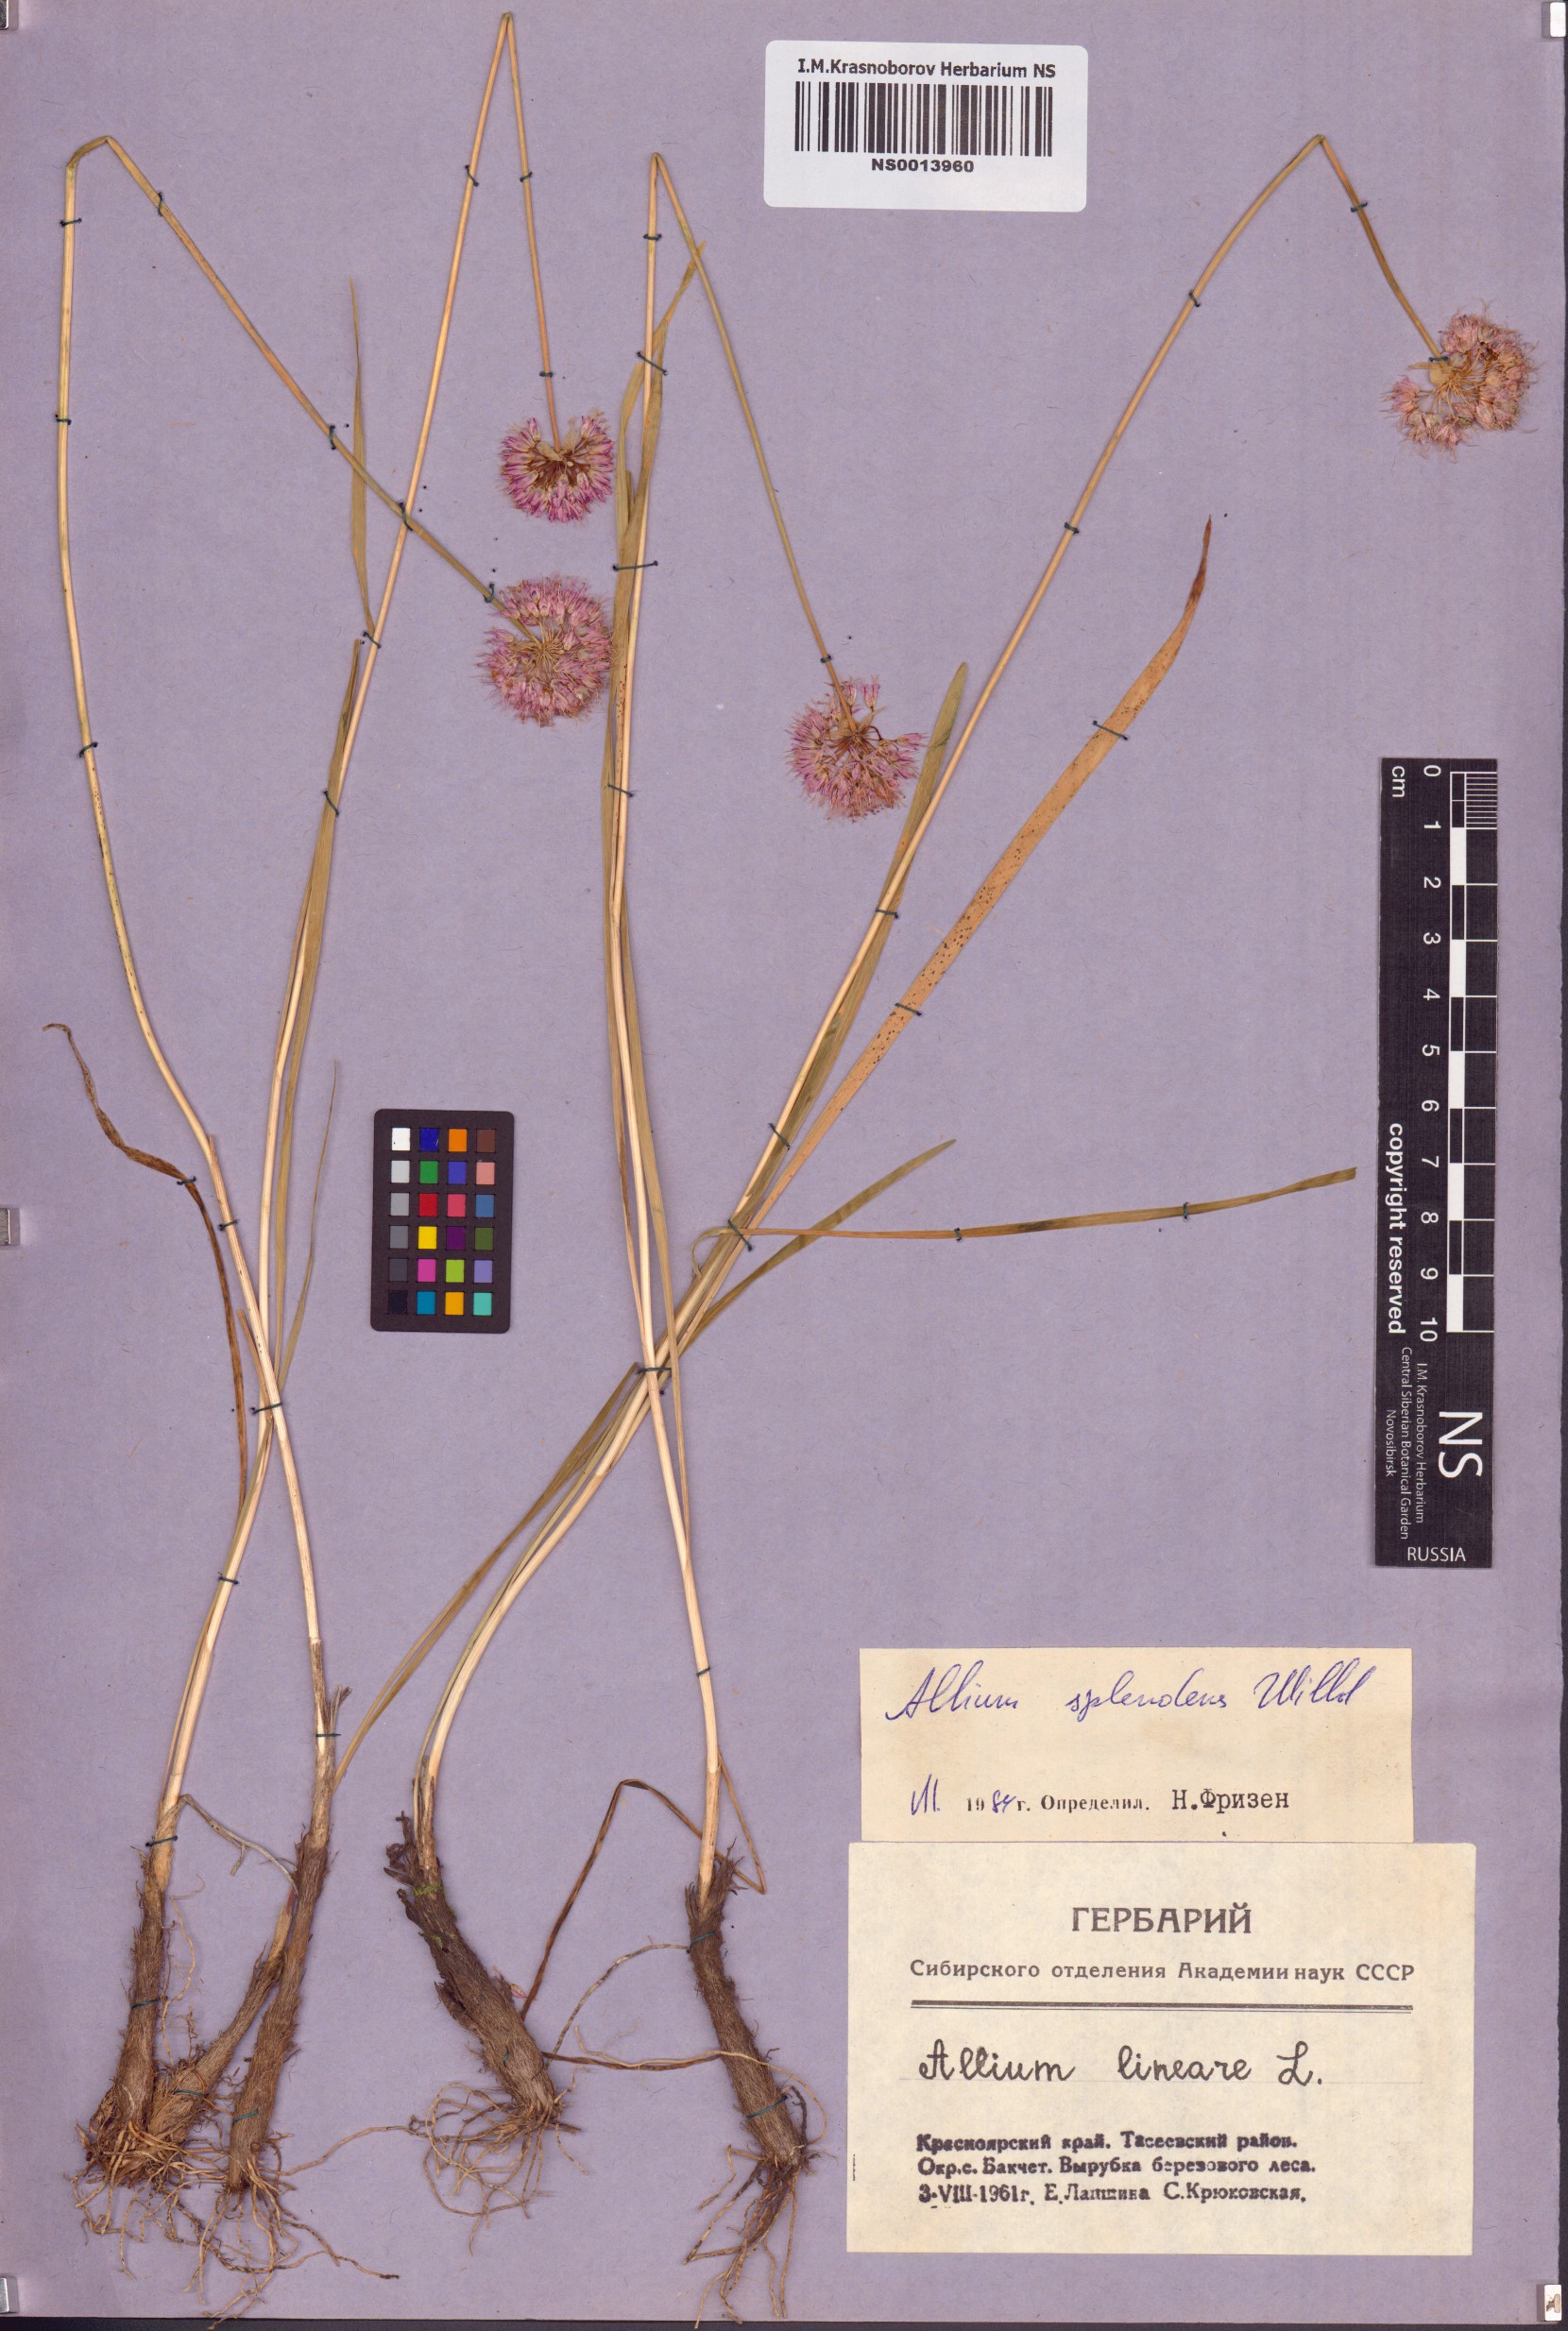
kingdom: Plantae
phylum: Tracheophyta
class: Liliopsida
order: Asparagales
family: Amaryllidaceae
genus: Allium
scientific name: Allium splendens
